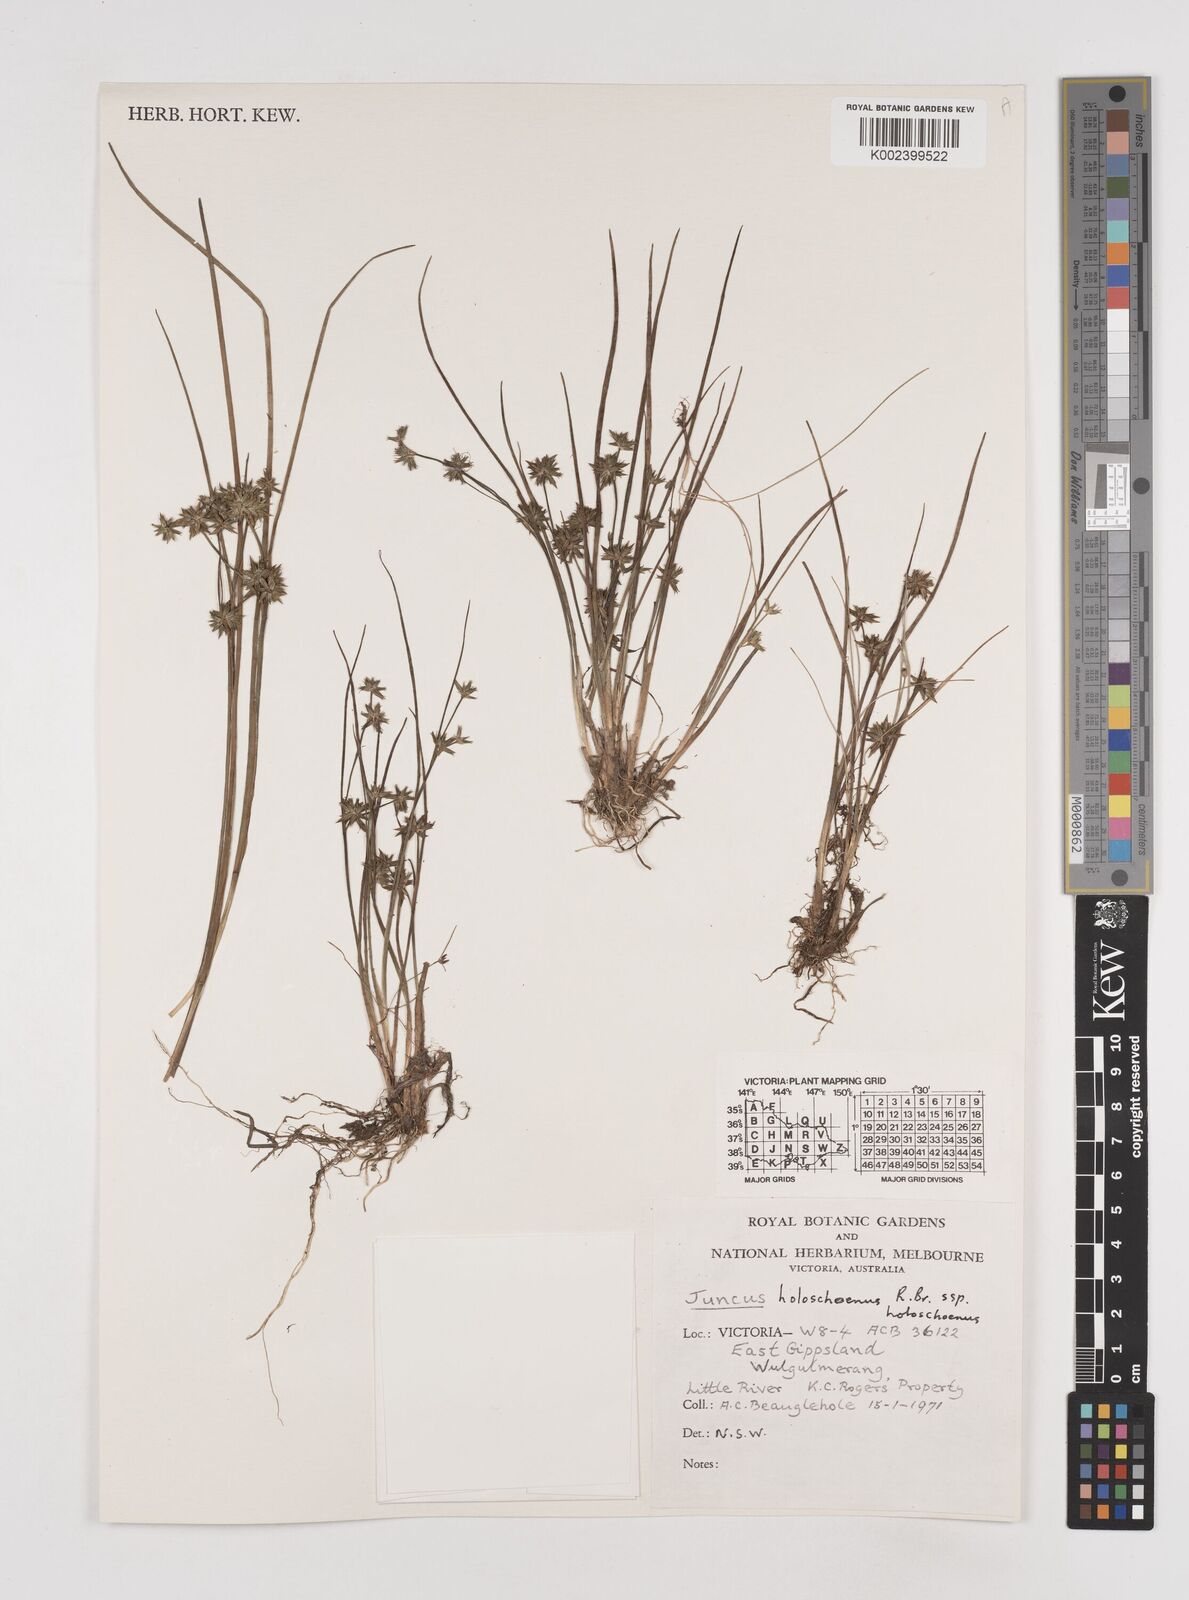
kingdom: Plantae
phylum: Tracheophyta
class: Liliopsida
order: Poales
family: Juncaceae
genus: Juncus
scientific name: Juncus holoschoenus
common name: Joint-leaf rush
